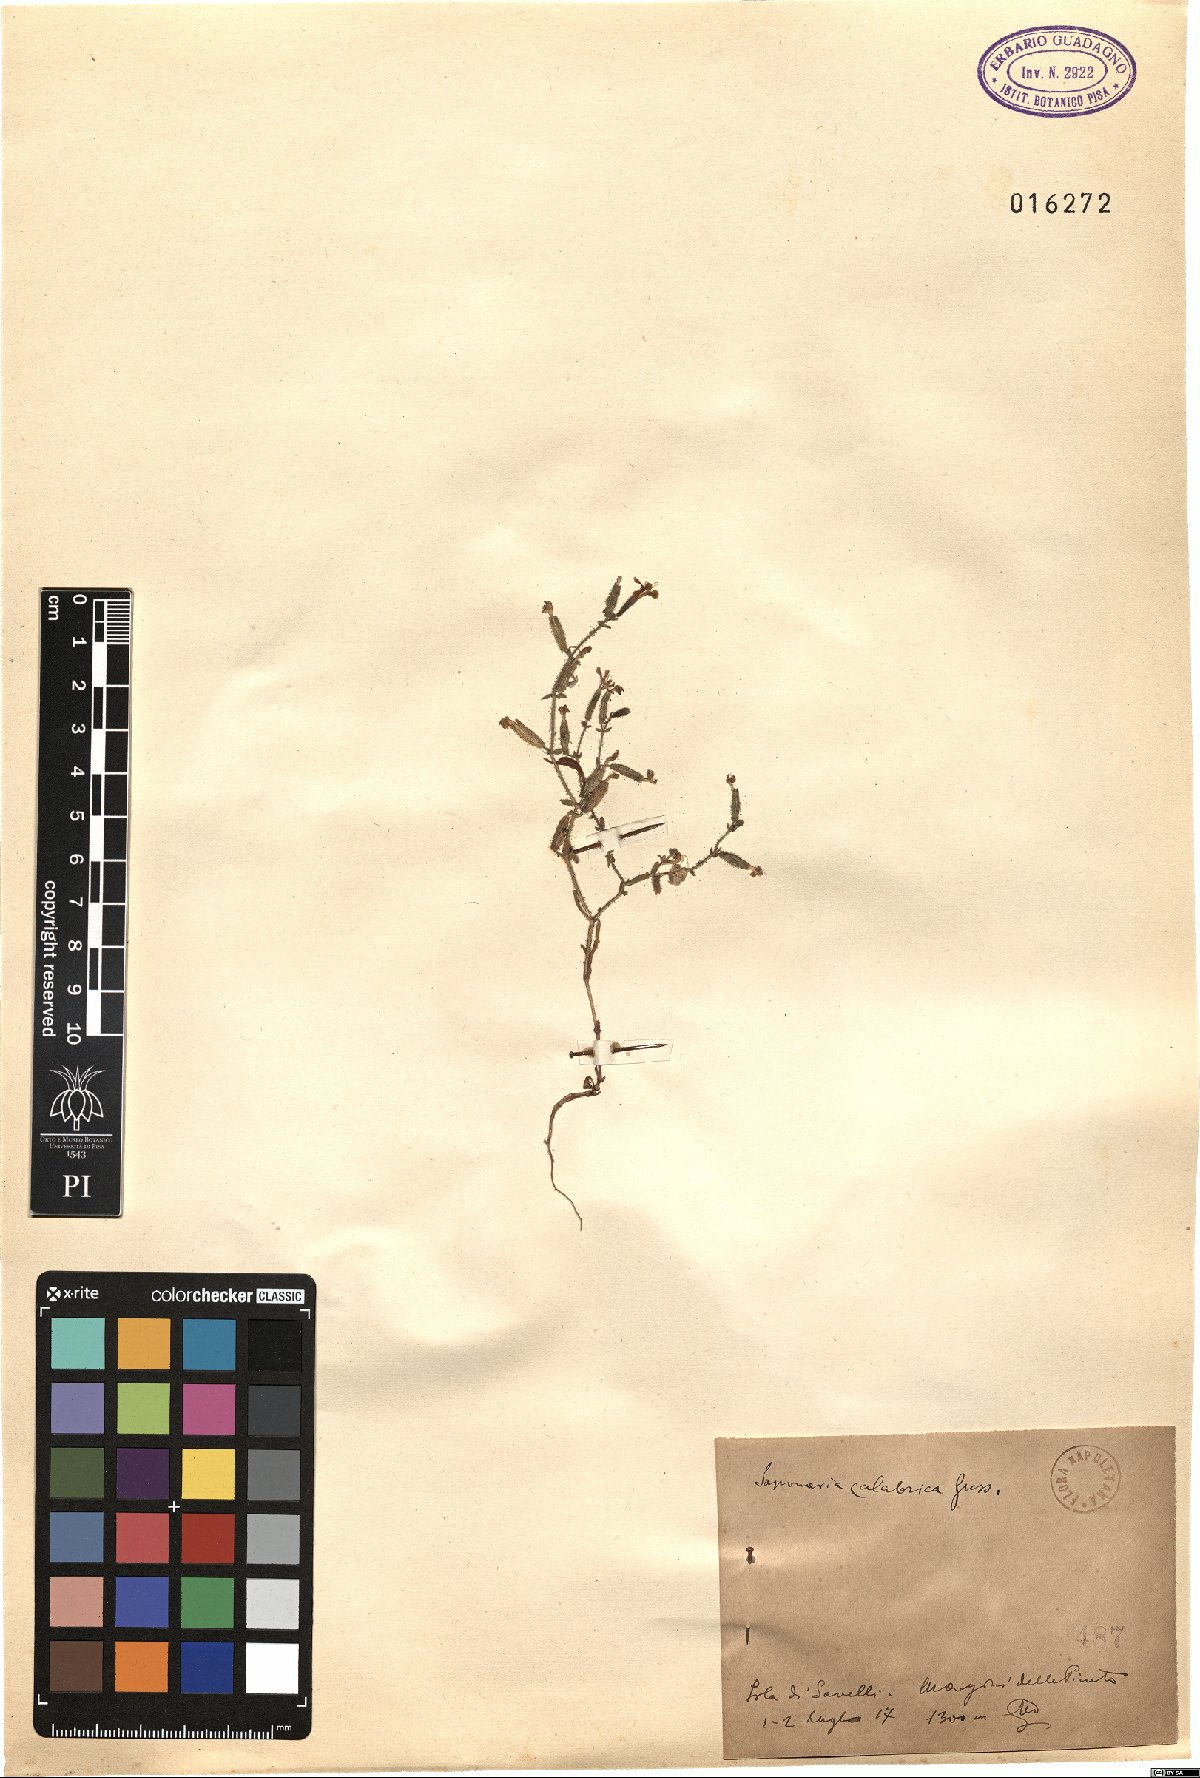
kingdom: Plantae
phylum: Tracheophyta
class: Magnoliopsida
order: Caryophyllales
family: Caryophyllaceae
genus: Saponaria
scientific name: Saponaria calabrica
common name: Adriatic soapwort
